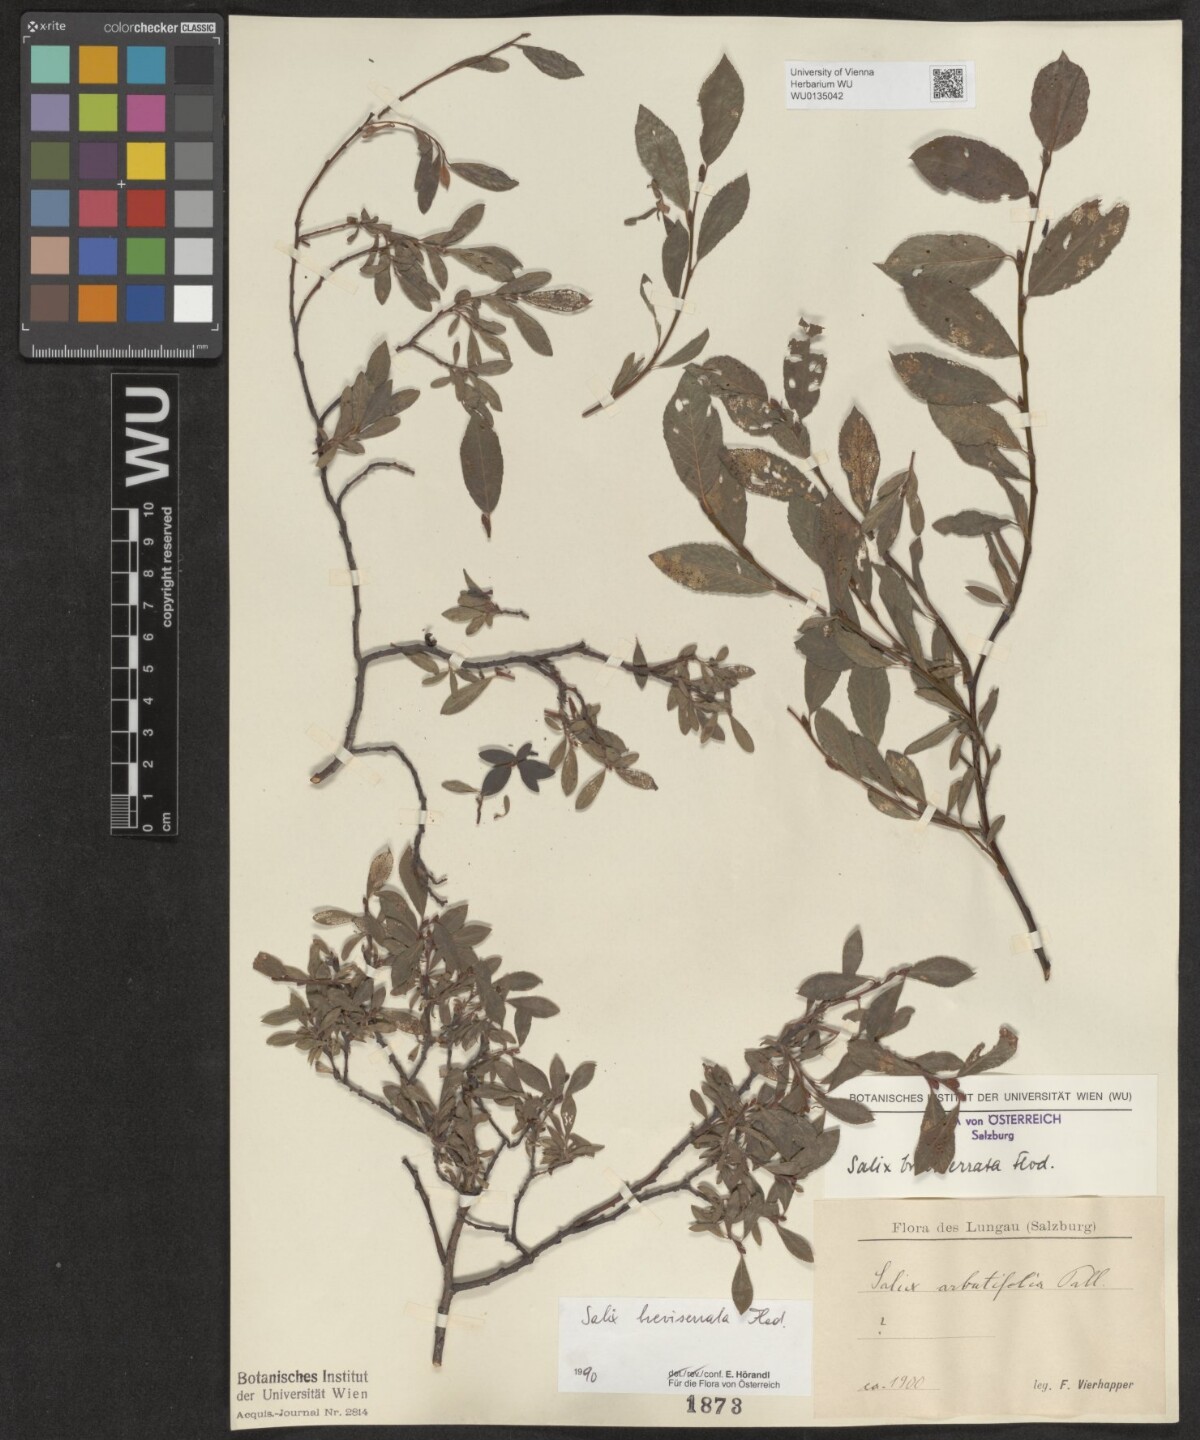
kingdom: Plantae
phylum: Tracheophyta
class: Magnoliopsida
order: Malpighiales
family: Salicaceae
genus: Salix
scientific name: Salix breviserrata
